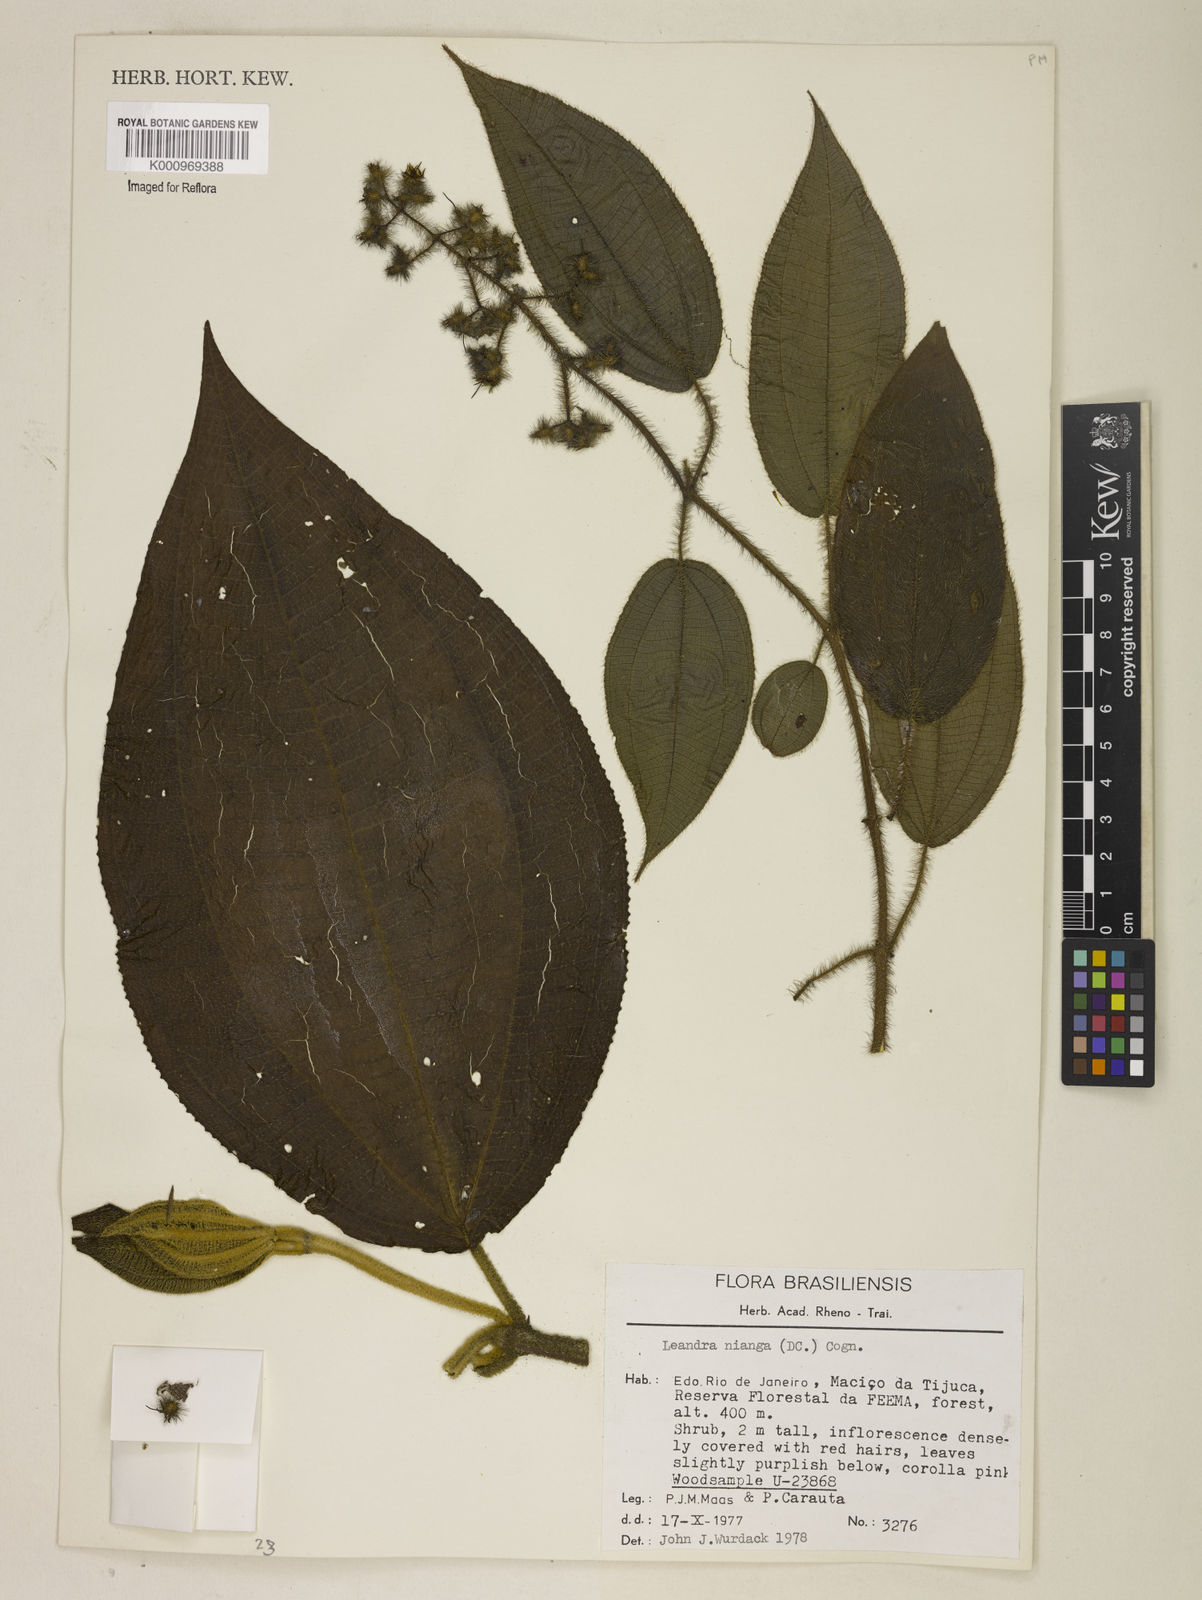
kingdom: Plantae
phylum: Tracheophyta
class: Magnoliopsida
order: Myrtales
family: Melastomataceae
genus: Miconia
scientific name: Miconia nianga
